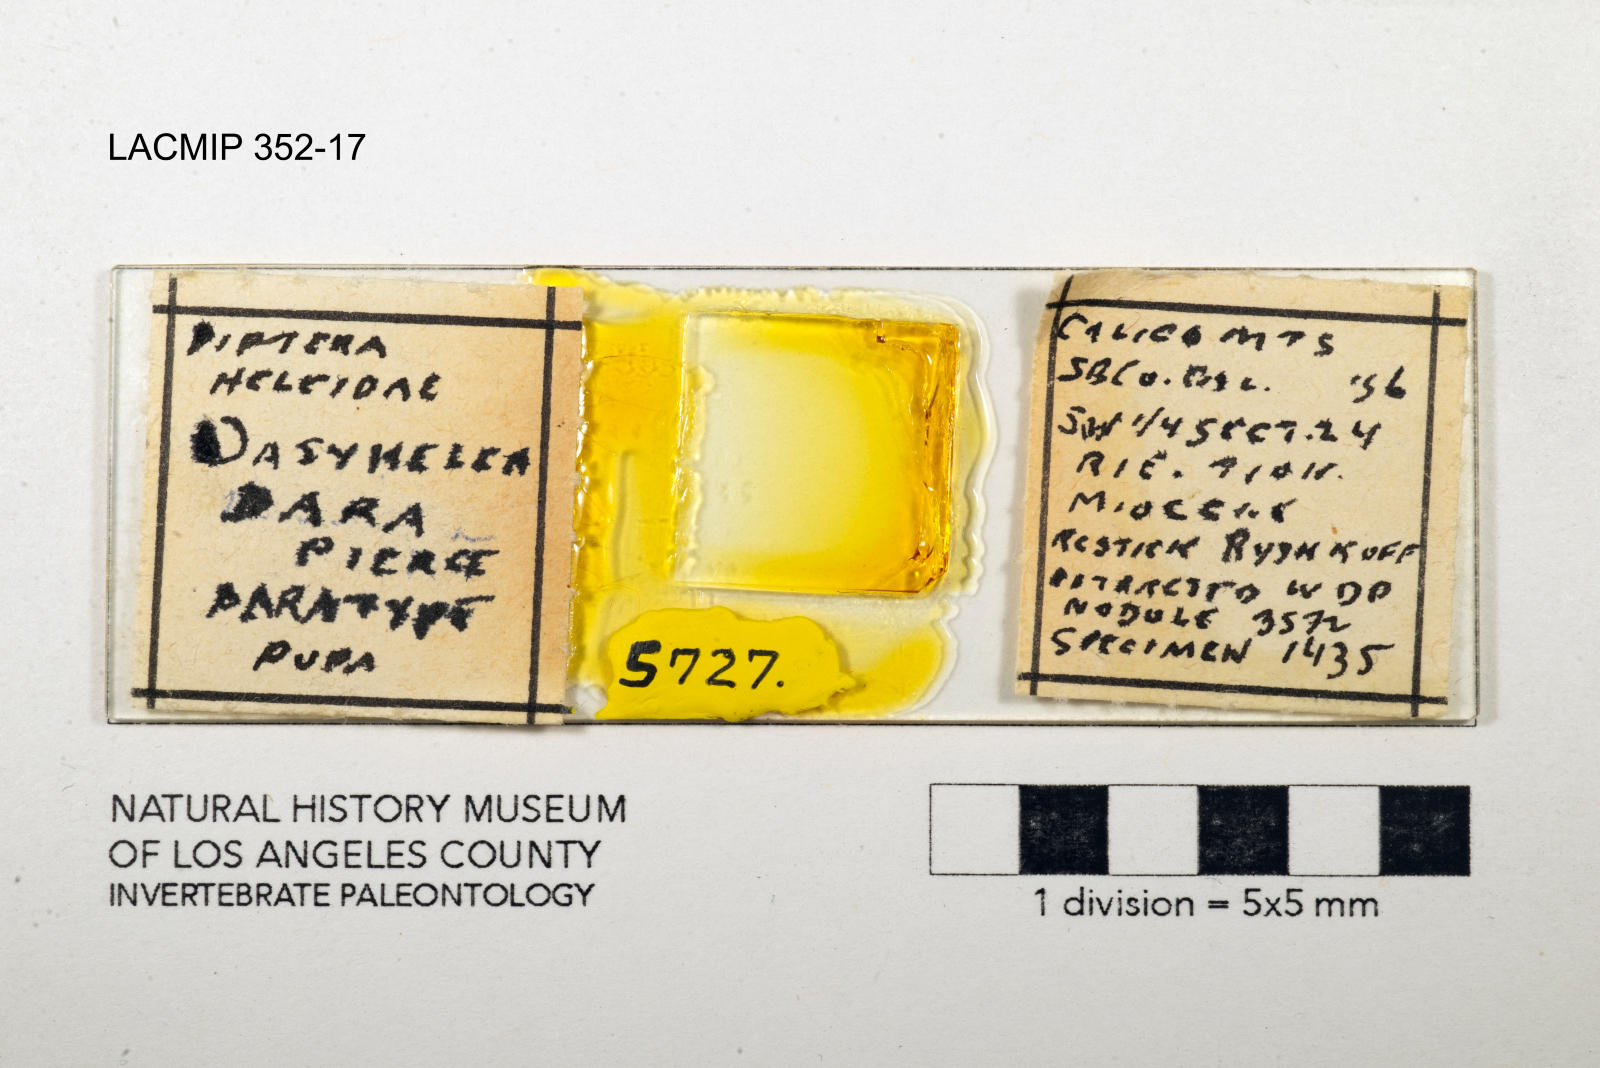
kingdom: Animalia
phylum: Arthropoda
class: Insecta
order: Diptera
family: Ceratopogonidae
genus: Dasyhelea
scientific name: Dasyhelea dara
